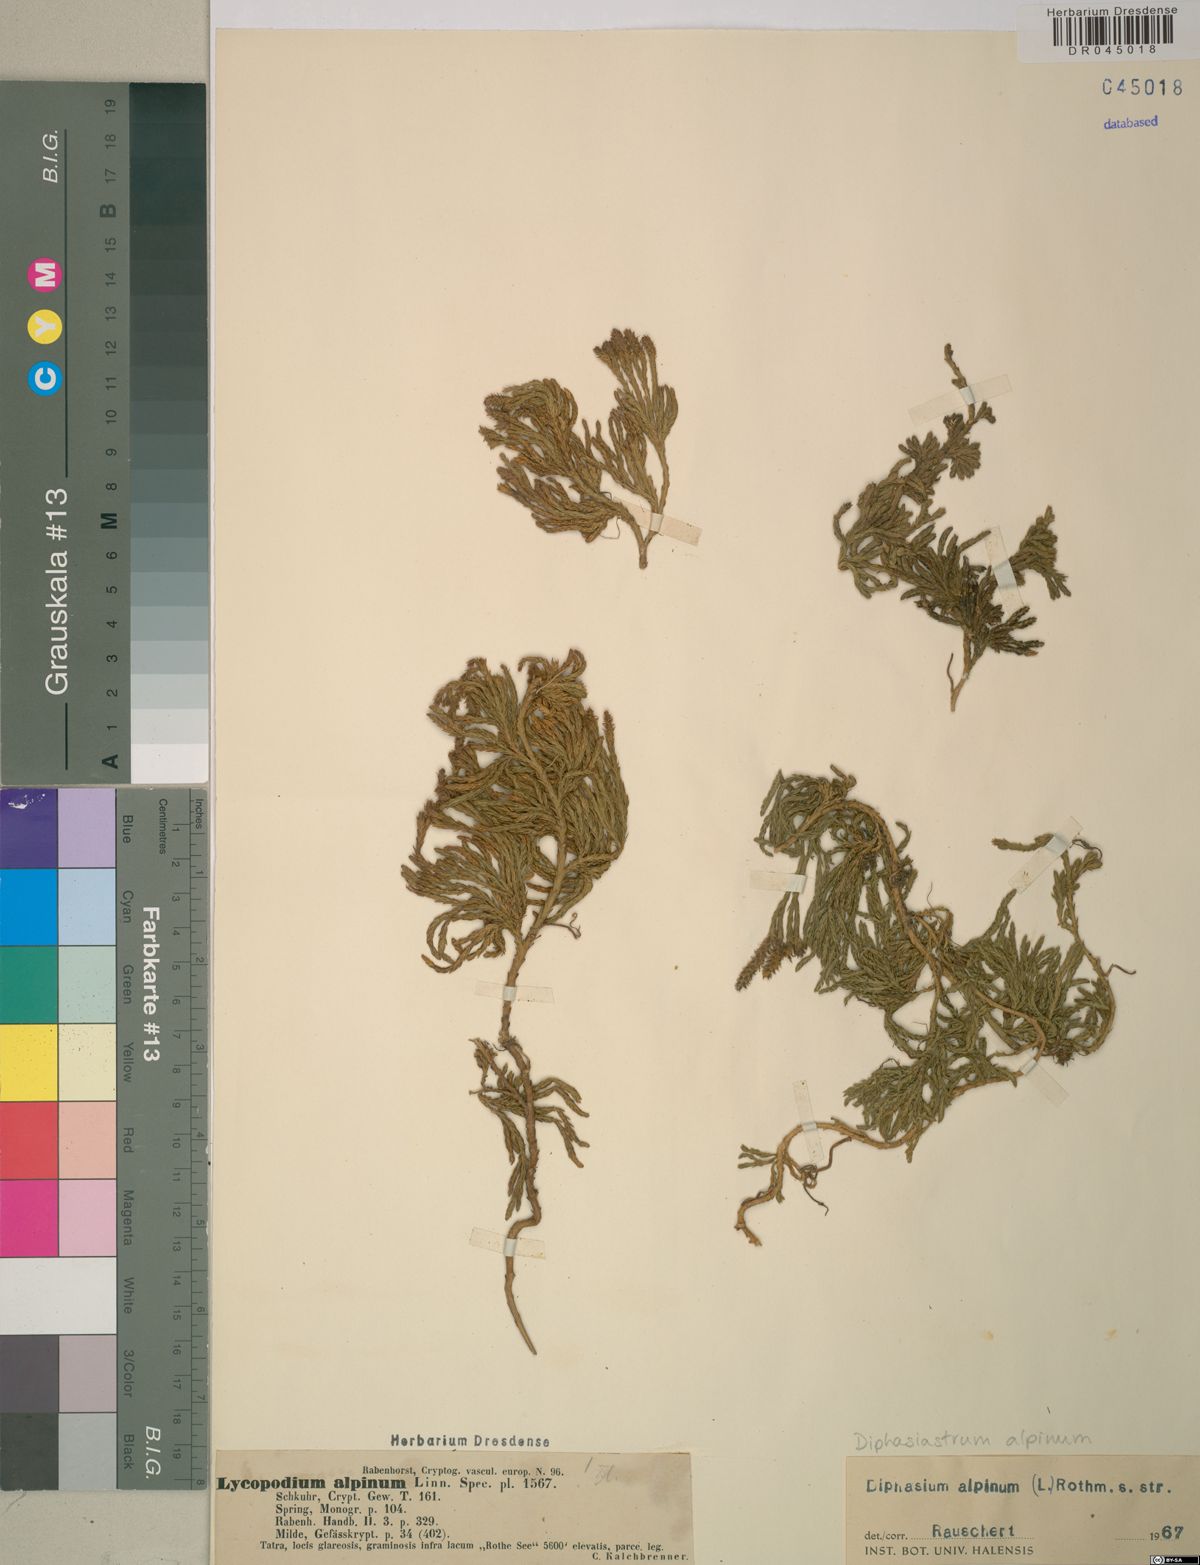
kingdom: Plantae
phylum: Tracheophyta
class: Lycopodiopsida
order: Lycopodiales
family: Lycopodiaceae
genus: Diphasiastrum
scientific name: Diphasiastrum alpinum
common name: Alpine clubmoss
